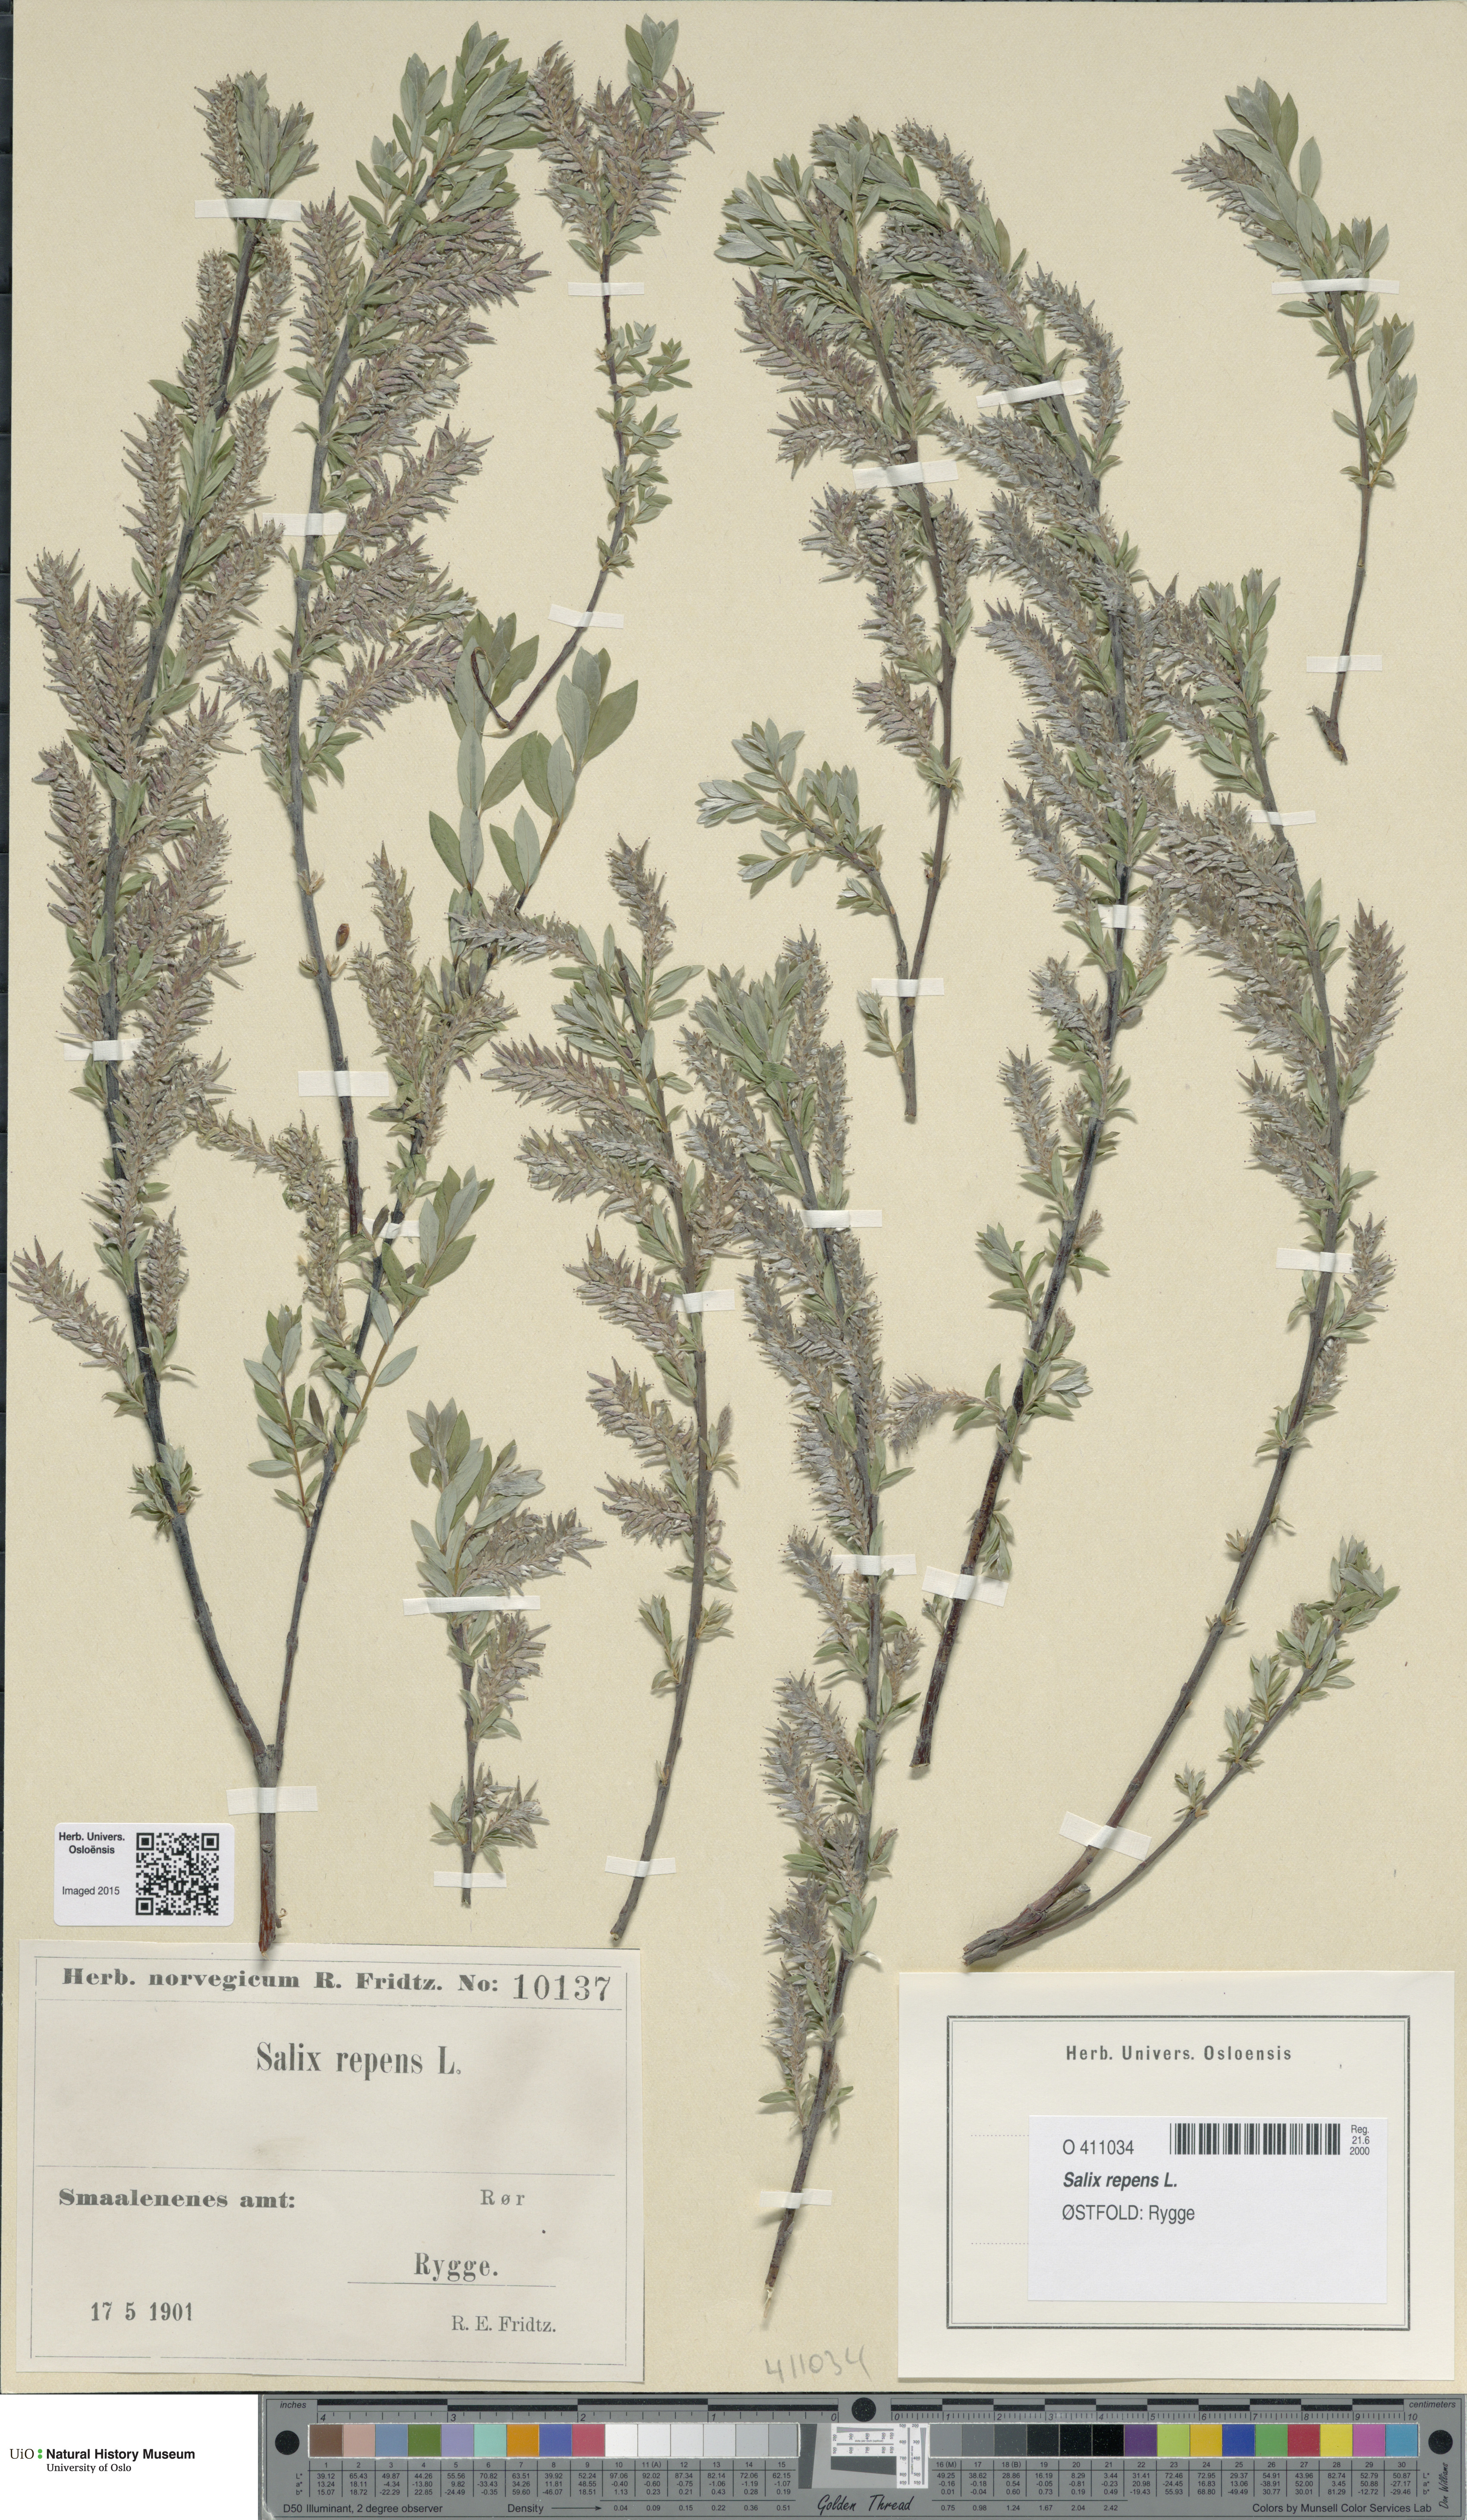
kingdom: Plantae
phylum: Tracheophyta
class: Magnoliopsida
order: Malpighiales
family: Salicaceae
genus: Salix
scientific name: Salix repens
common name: Creeping willow
